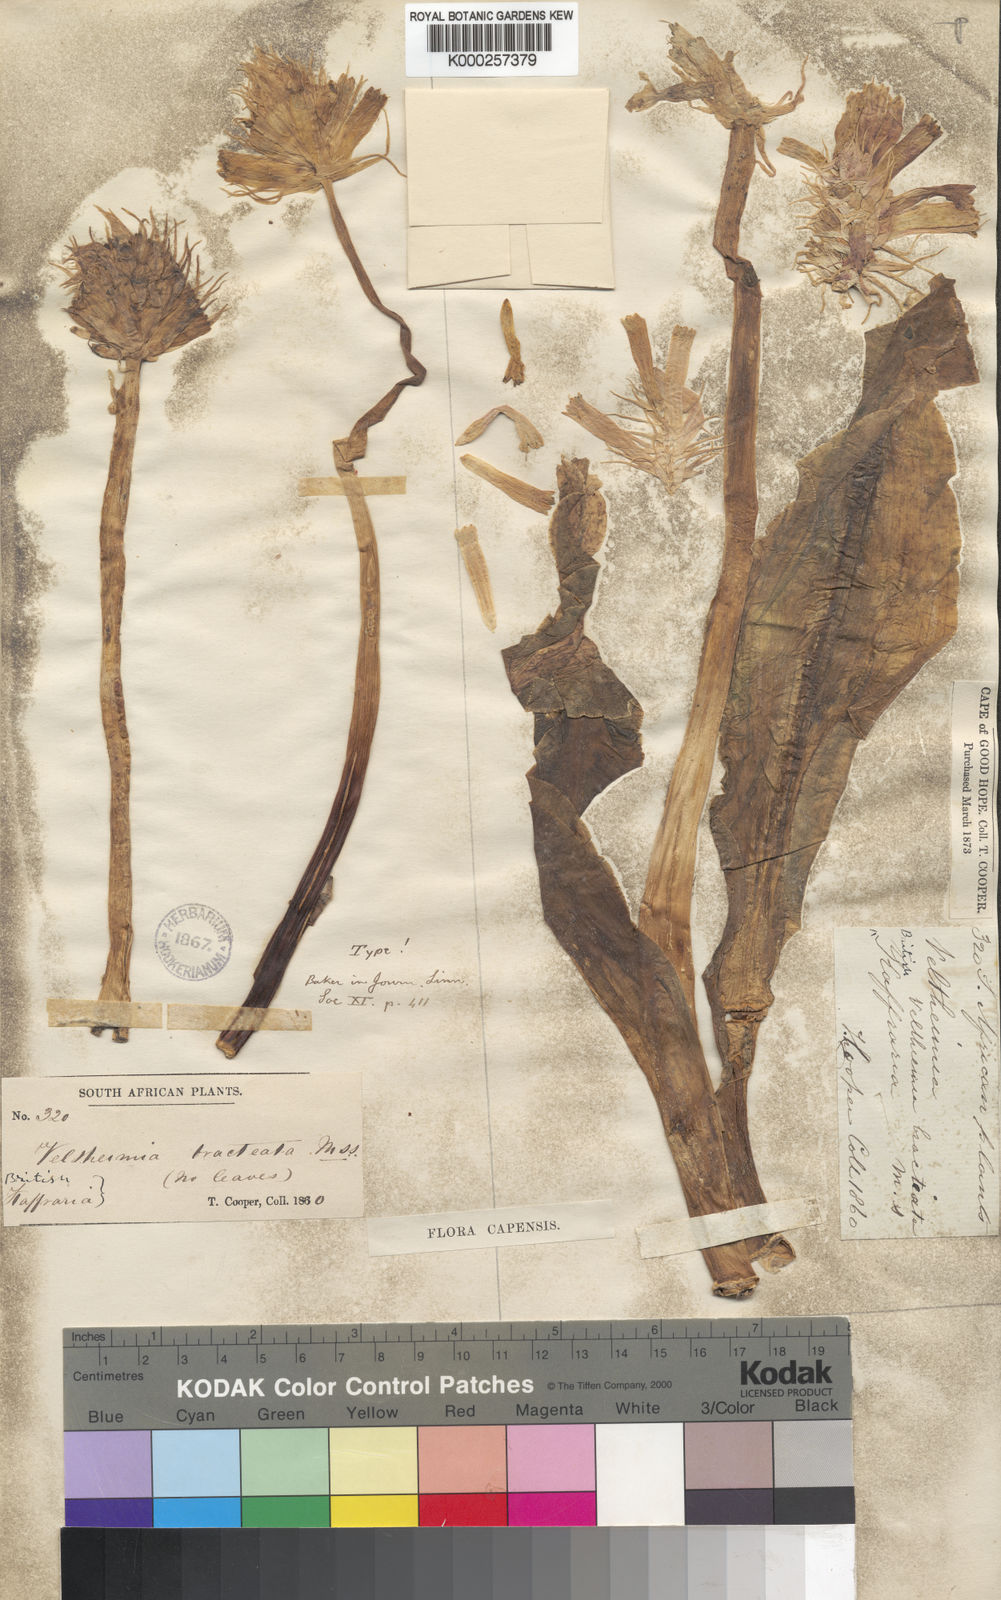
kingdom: Plantae
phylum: Tracheophyta
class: Liliopsida
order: Asparagales
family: Asparagaceae
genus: Veltheimia
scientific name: Veltheimia bracteata
